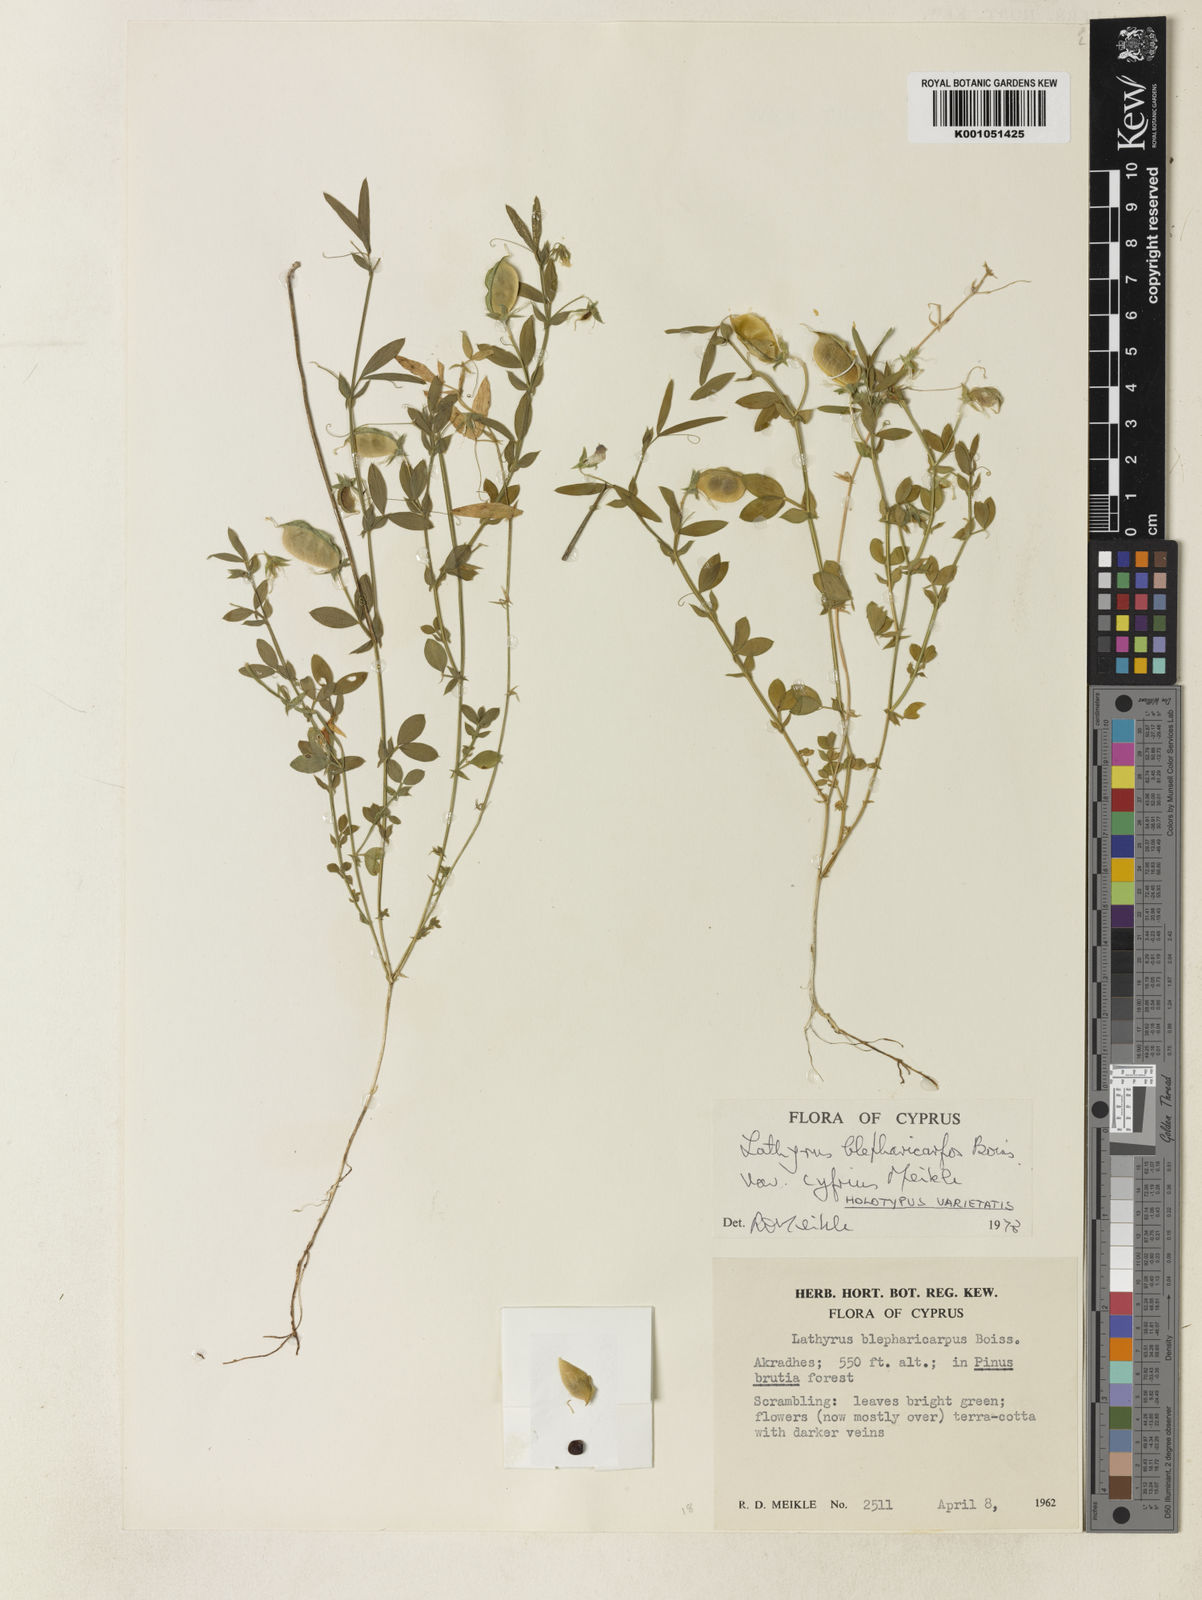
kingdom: Plantae
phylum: Tracheophyta
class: Magnoliopsida
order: Fabales
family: Fabaceae
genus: Lathyrus
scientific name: Lathyrus
